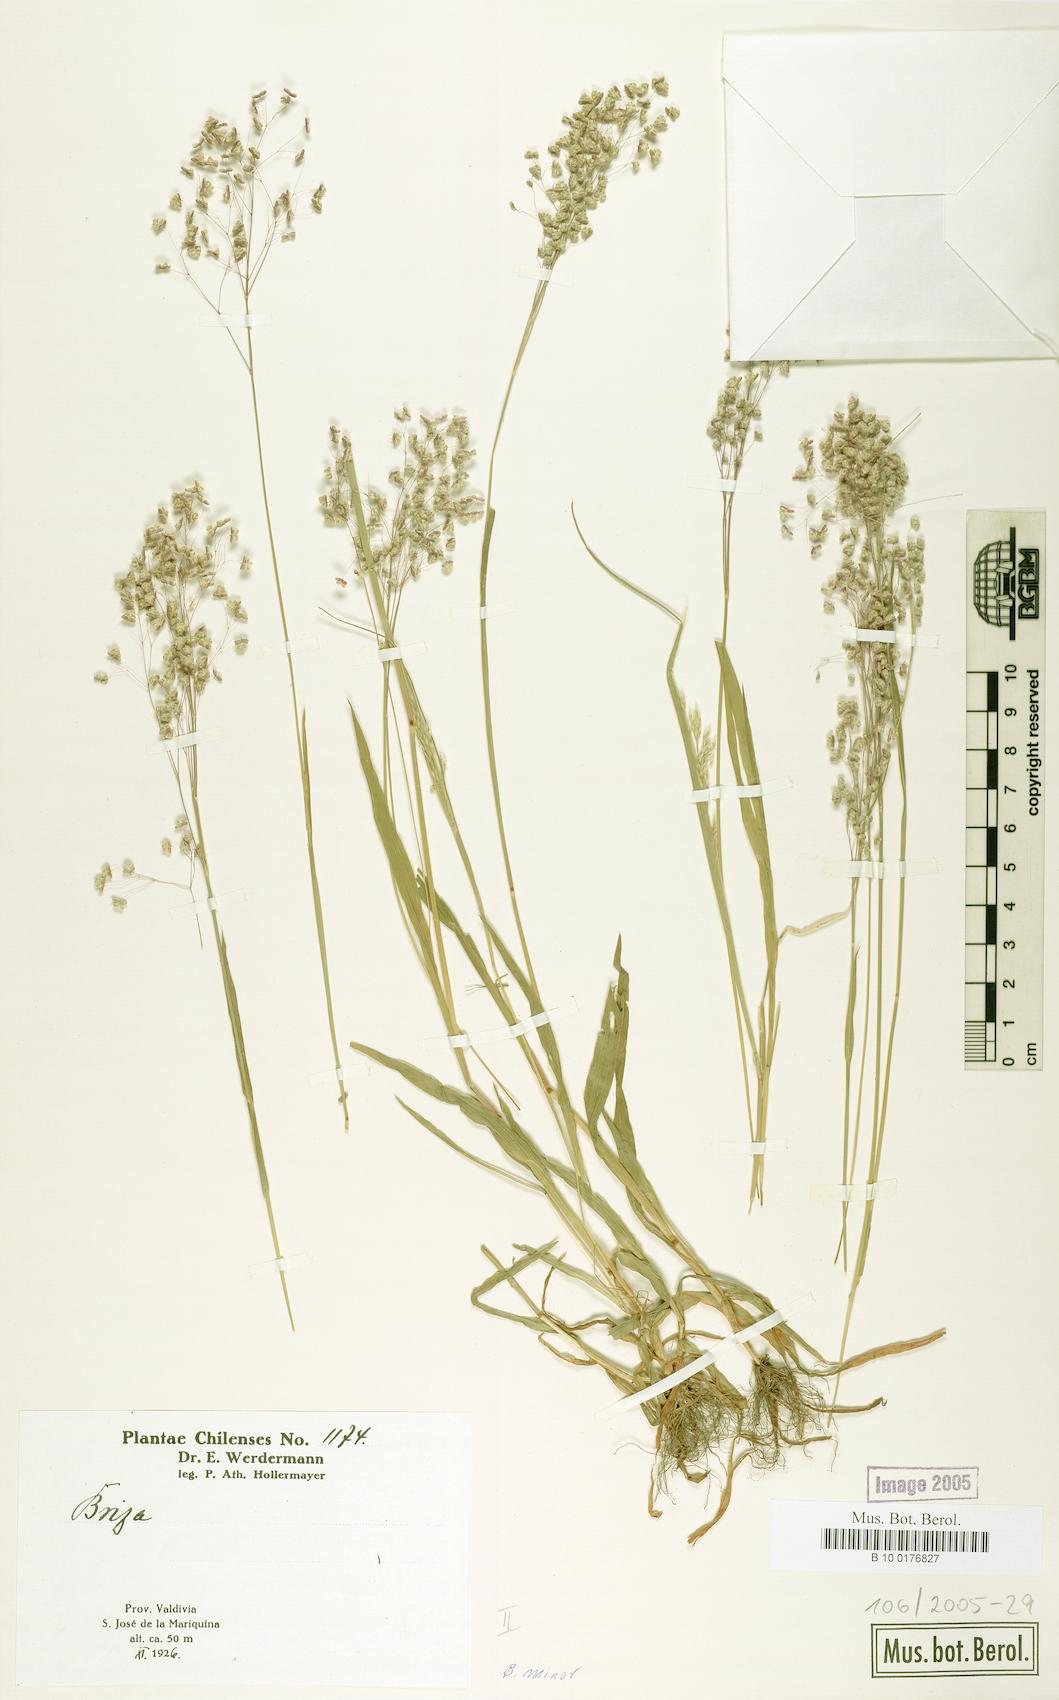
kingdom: Plantae
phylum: Tracheophyta
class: Liliopsida
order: Poales
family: Poaceae
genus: Briza
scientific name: Briza minor
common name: Lesser quaking-grass
